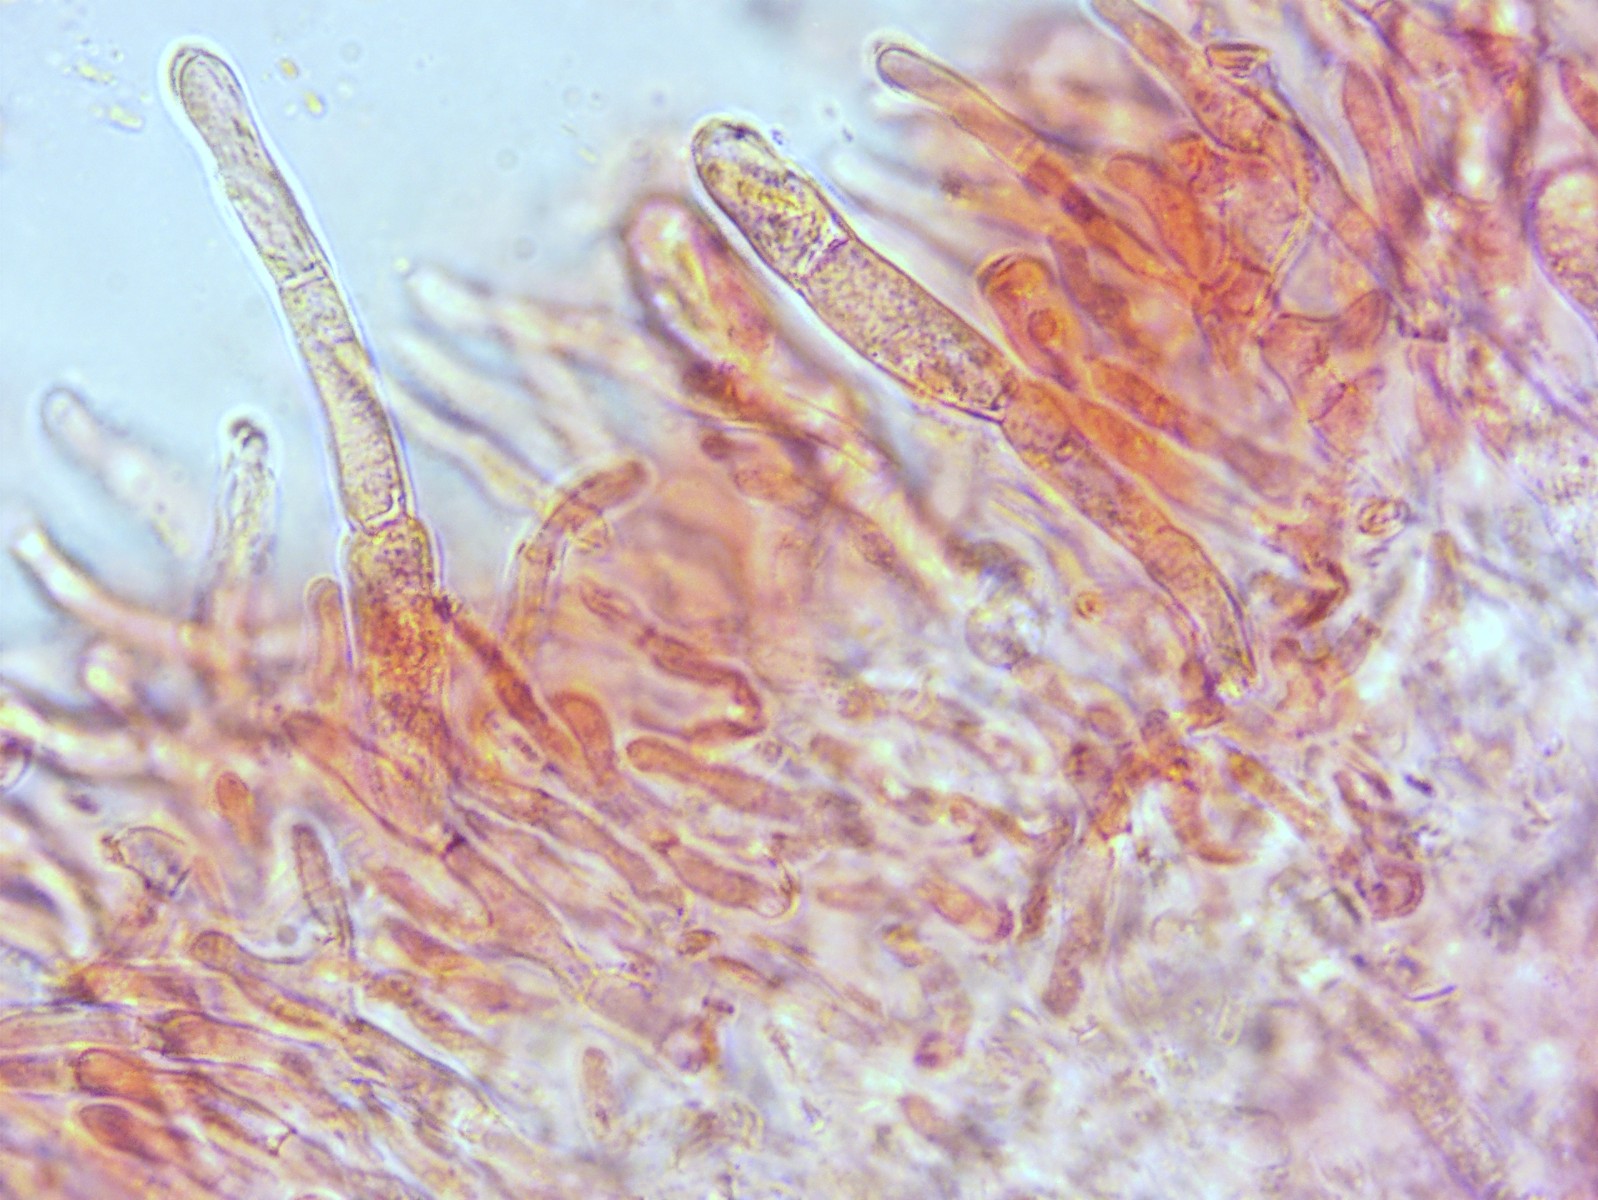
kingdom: Fungi
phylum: Basidiomycota
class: Agaricomycetes
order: Russulales
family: Russulaceae
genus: Russula
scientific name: Russula veternosa
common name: blødkødet skørhat
